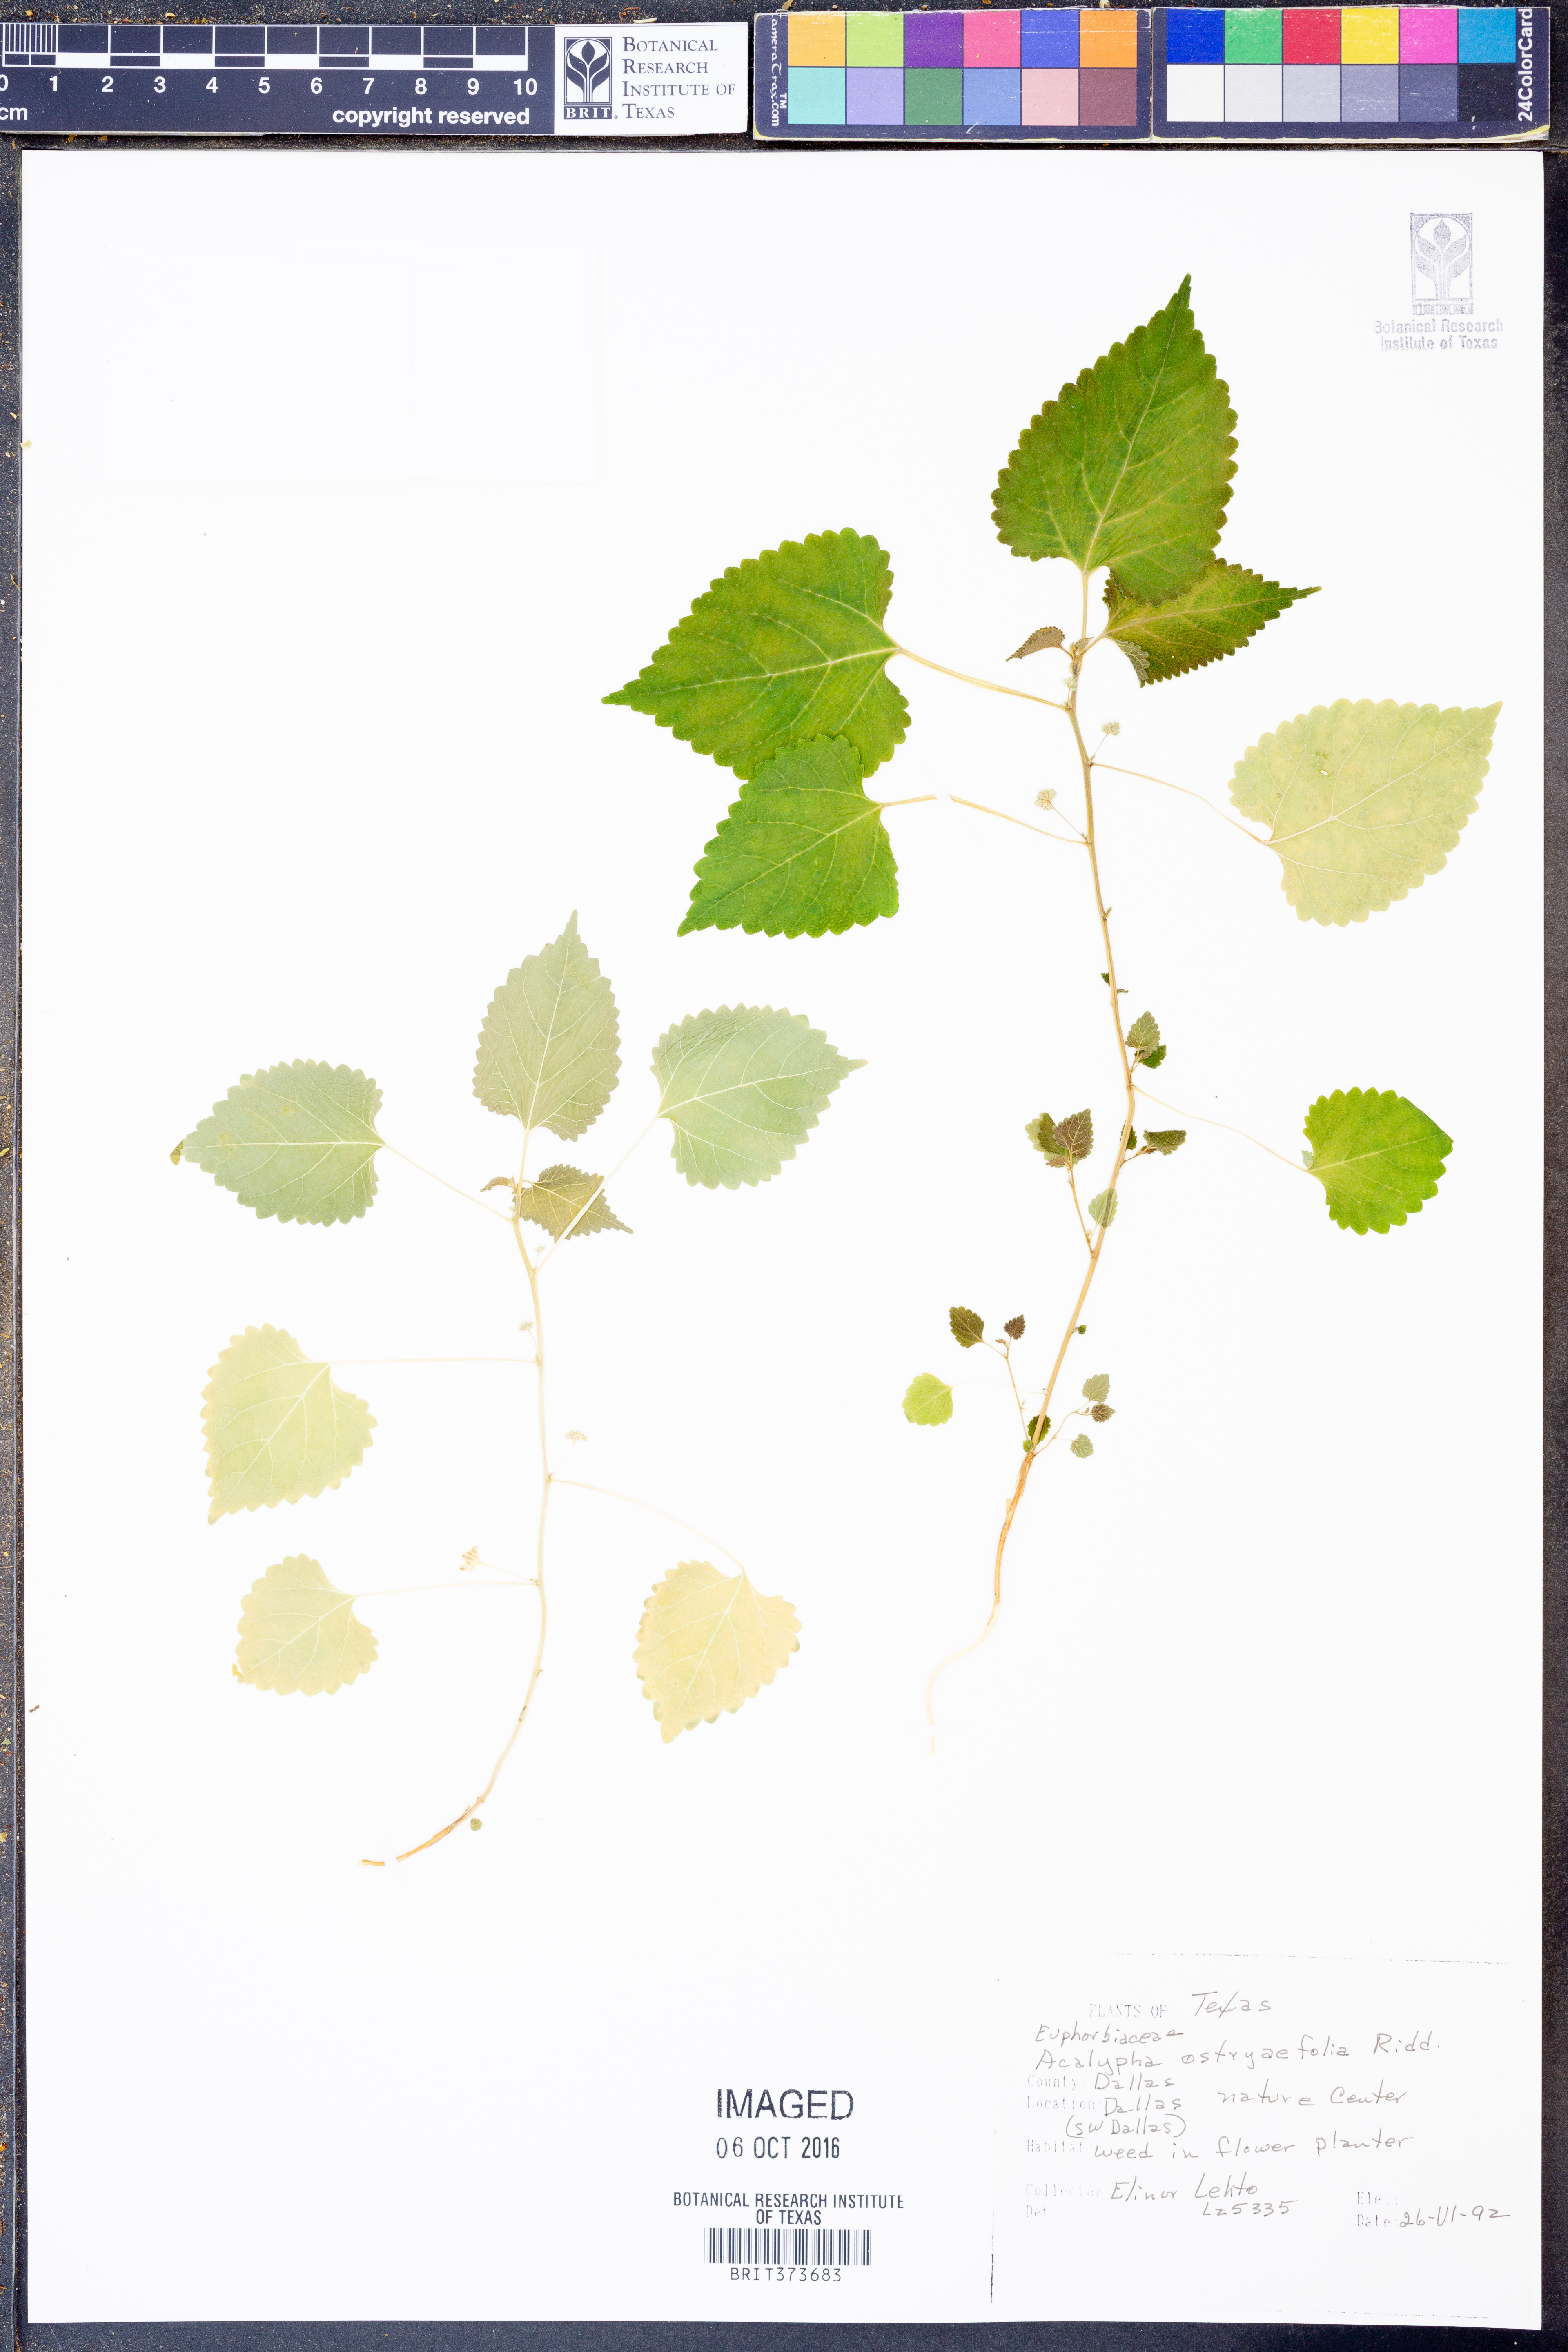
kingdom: Plantae
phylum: Tracheophyta
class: Magnoliopsida
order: Malpighiales
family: Euphorbiaceae
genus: Acalypha
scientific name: Acalypha ostryifolia
